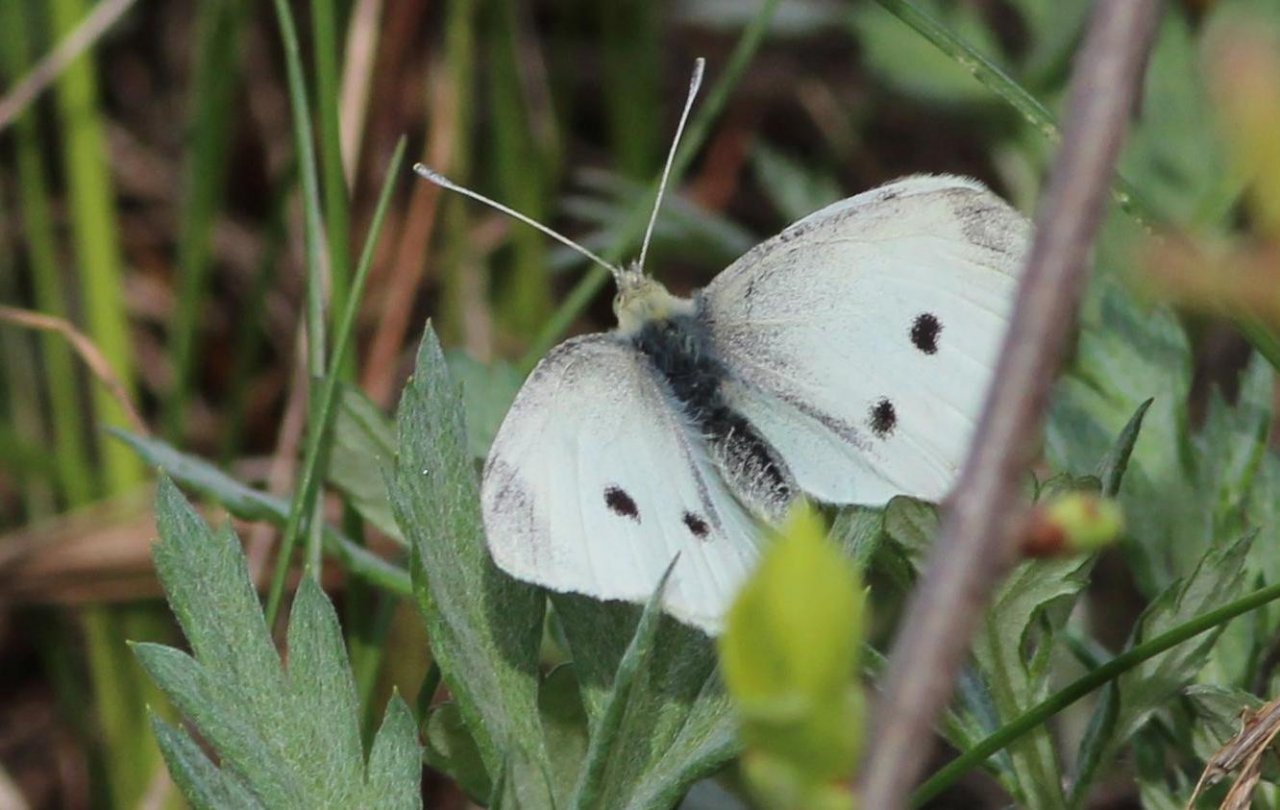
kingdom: Animalia
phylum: Arthropoda
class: Insecta
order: Lepidoptera
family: Pieridae
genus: Pieris
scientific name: Pieris rapae
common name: Cabbage White
